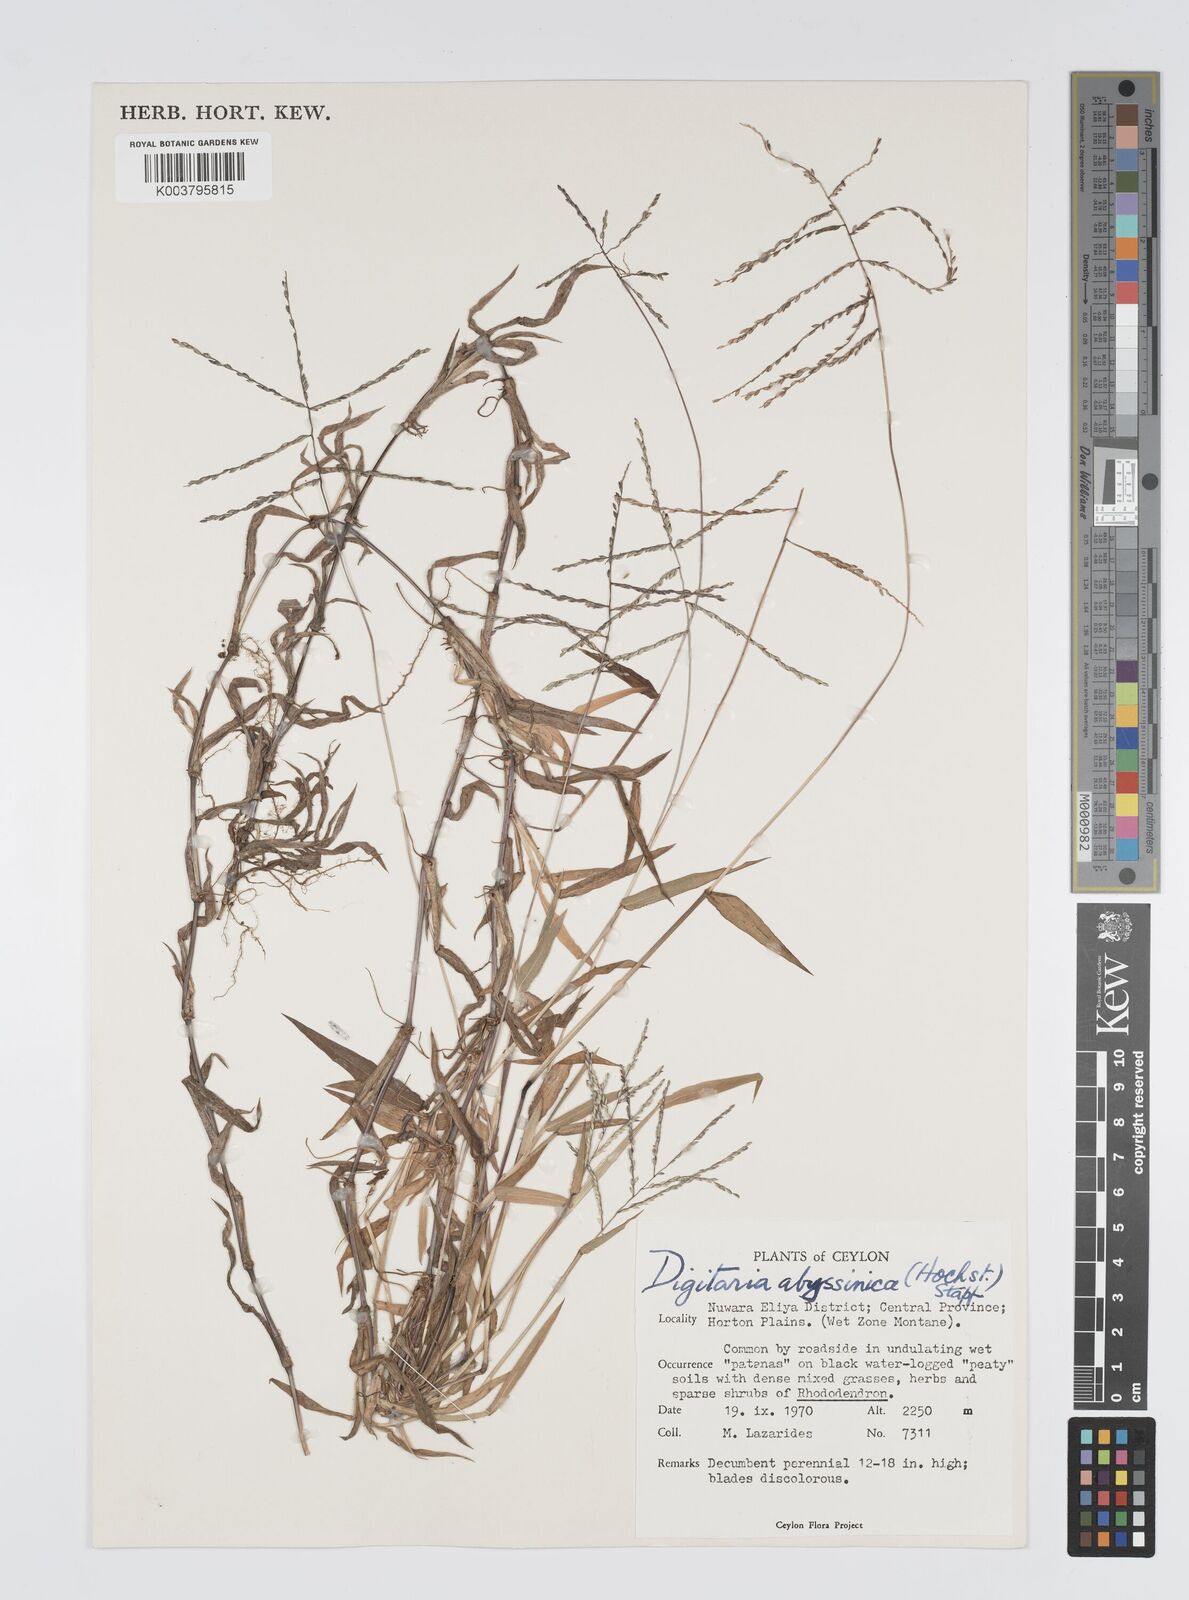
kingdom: Plantae
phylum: Tracheophyta
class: Liliopsida
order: Poales
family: Poaceae
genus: Digitaria
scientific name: Digitaria abyssinica
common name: African couchgrass
